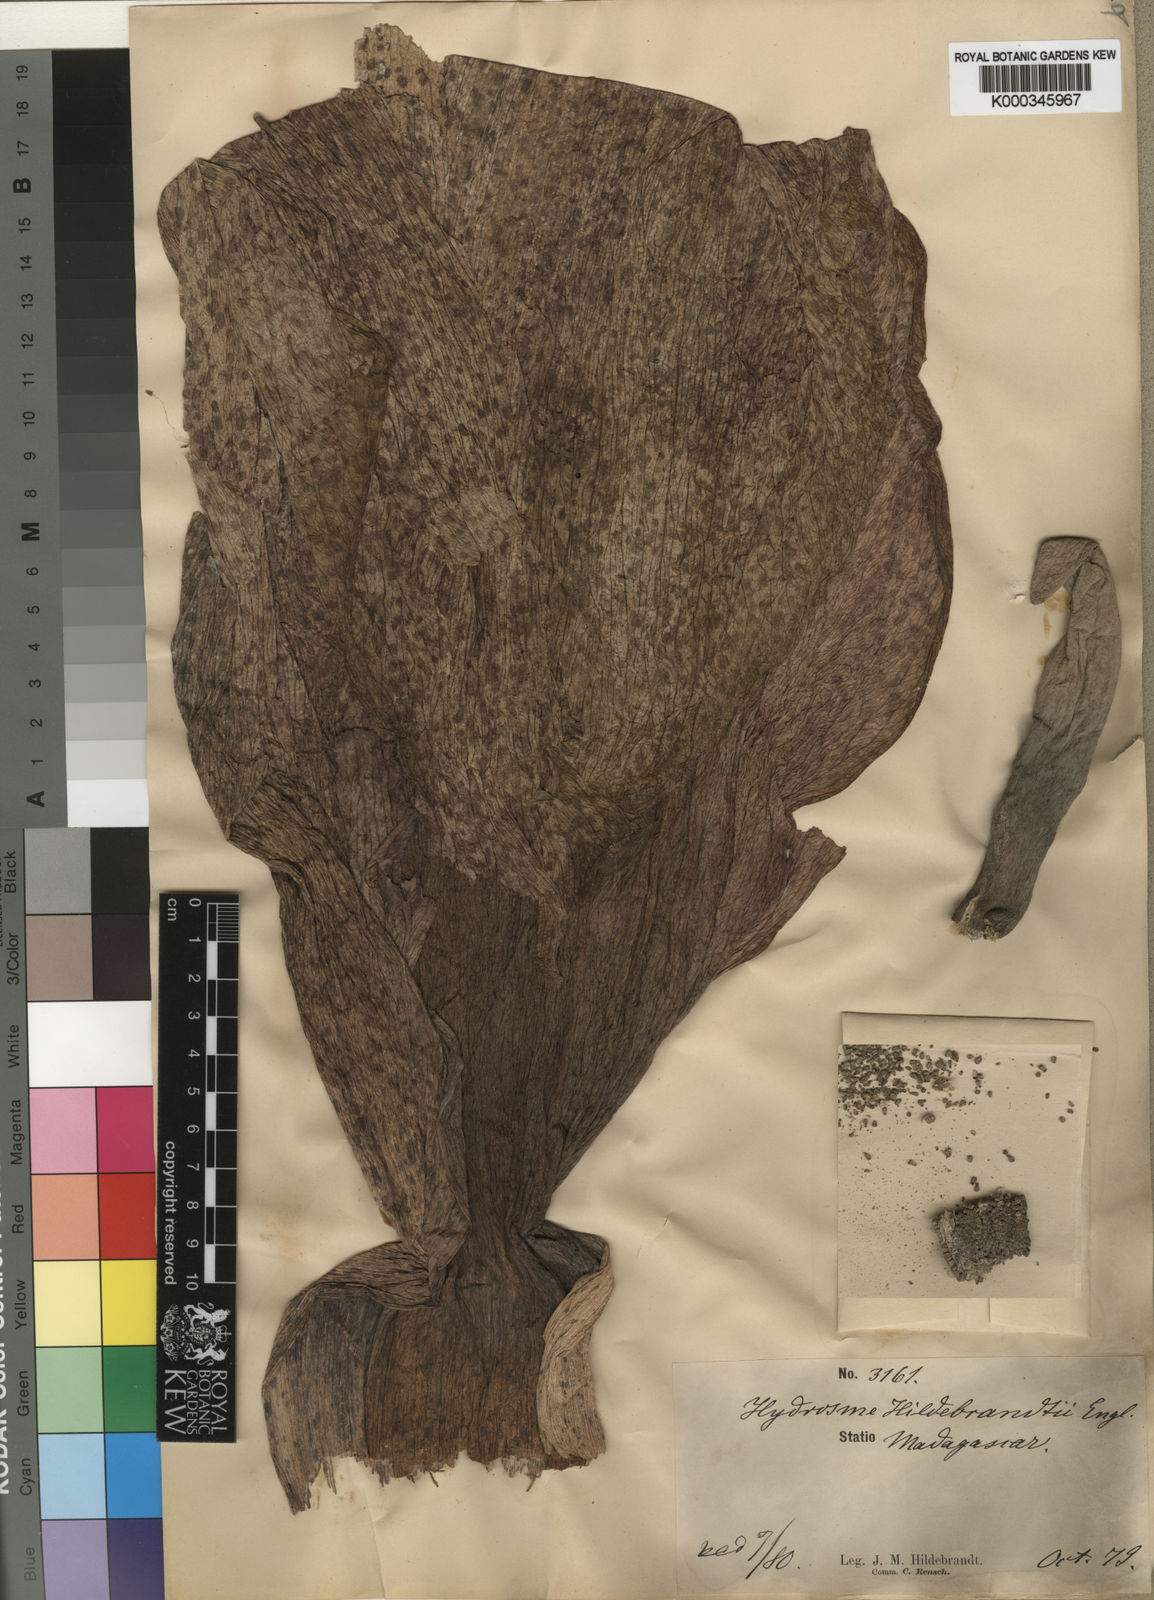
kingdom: Plantae
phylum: Tracheophyta
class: Liliopsida
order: Alismatales
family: Araceae
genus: Amorphophallus
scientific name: Amorphophallus hildebrandtii
